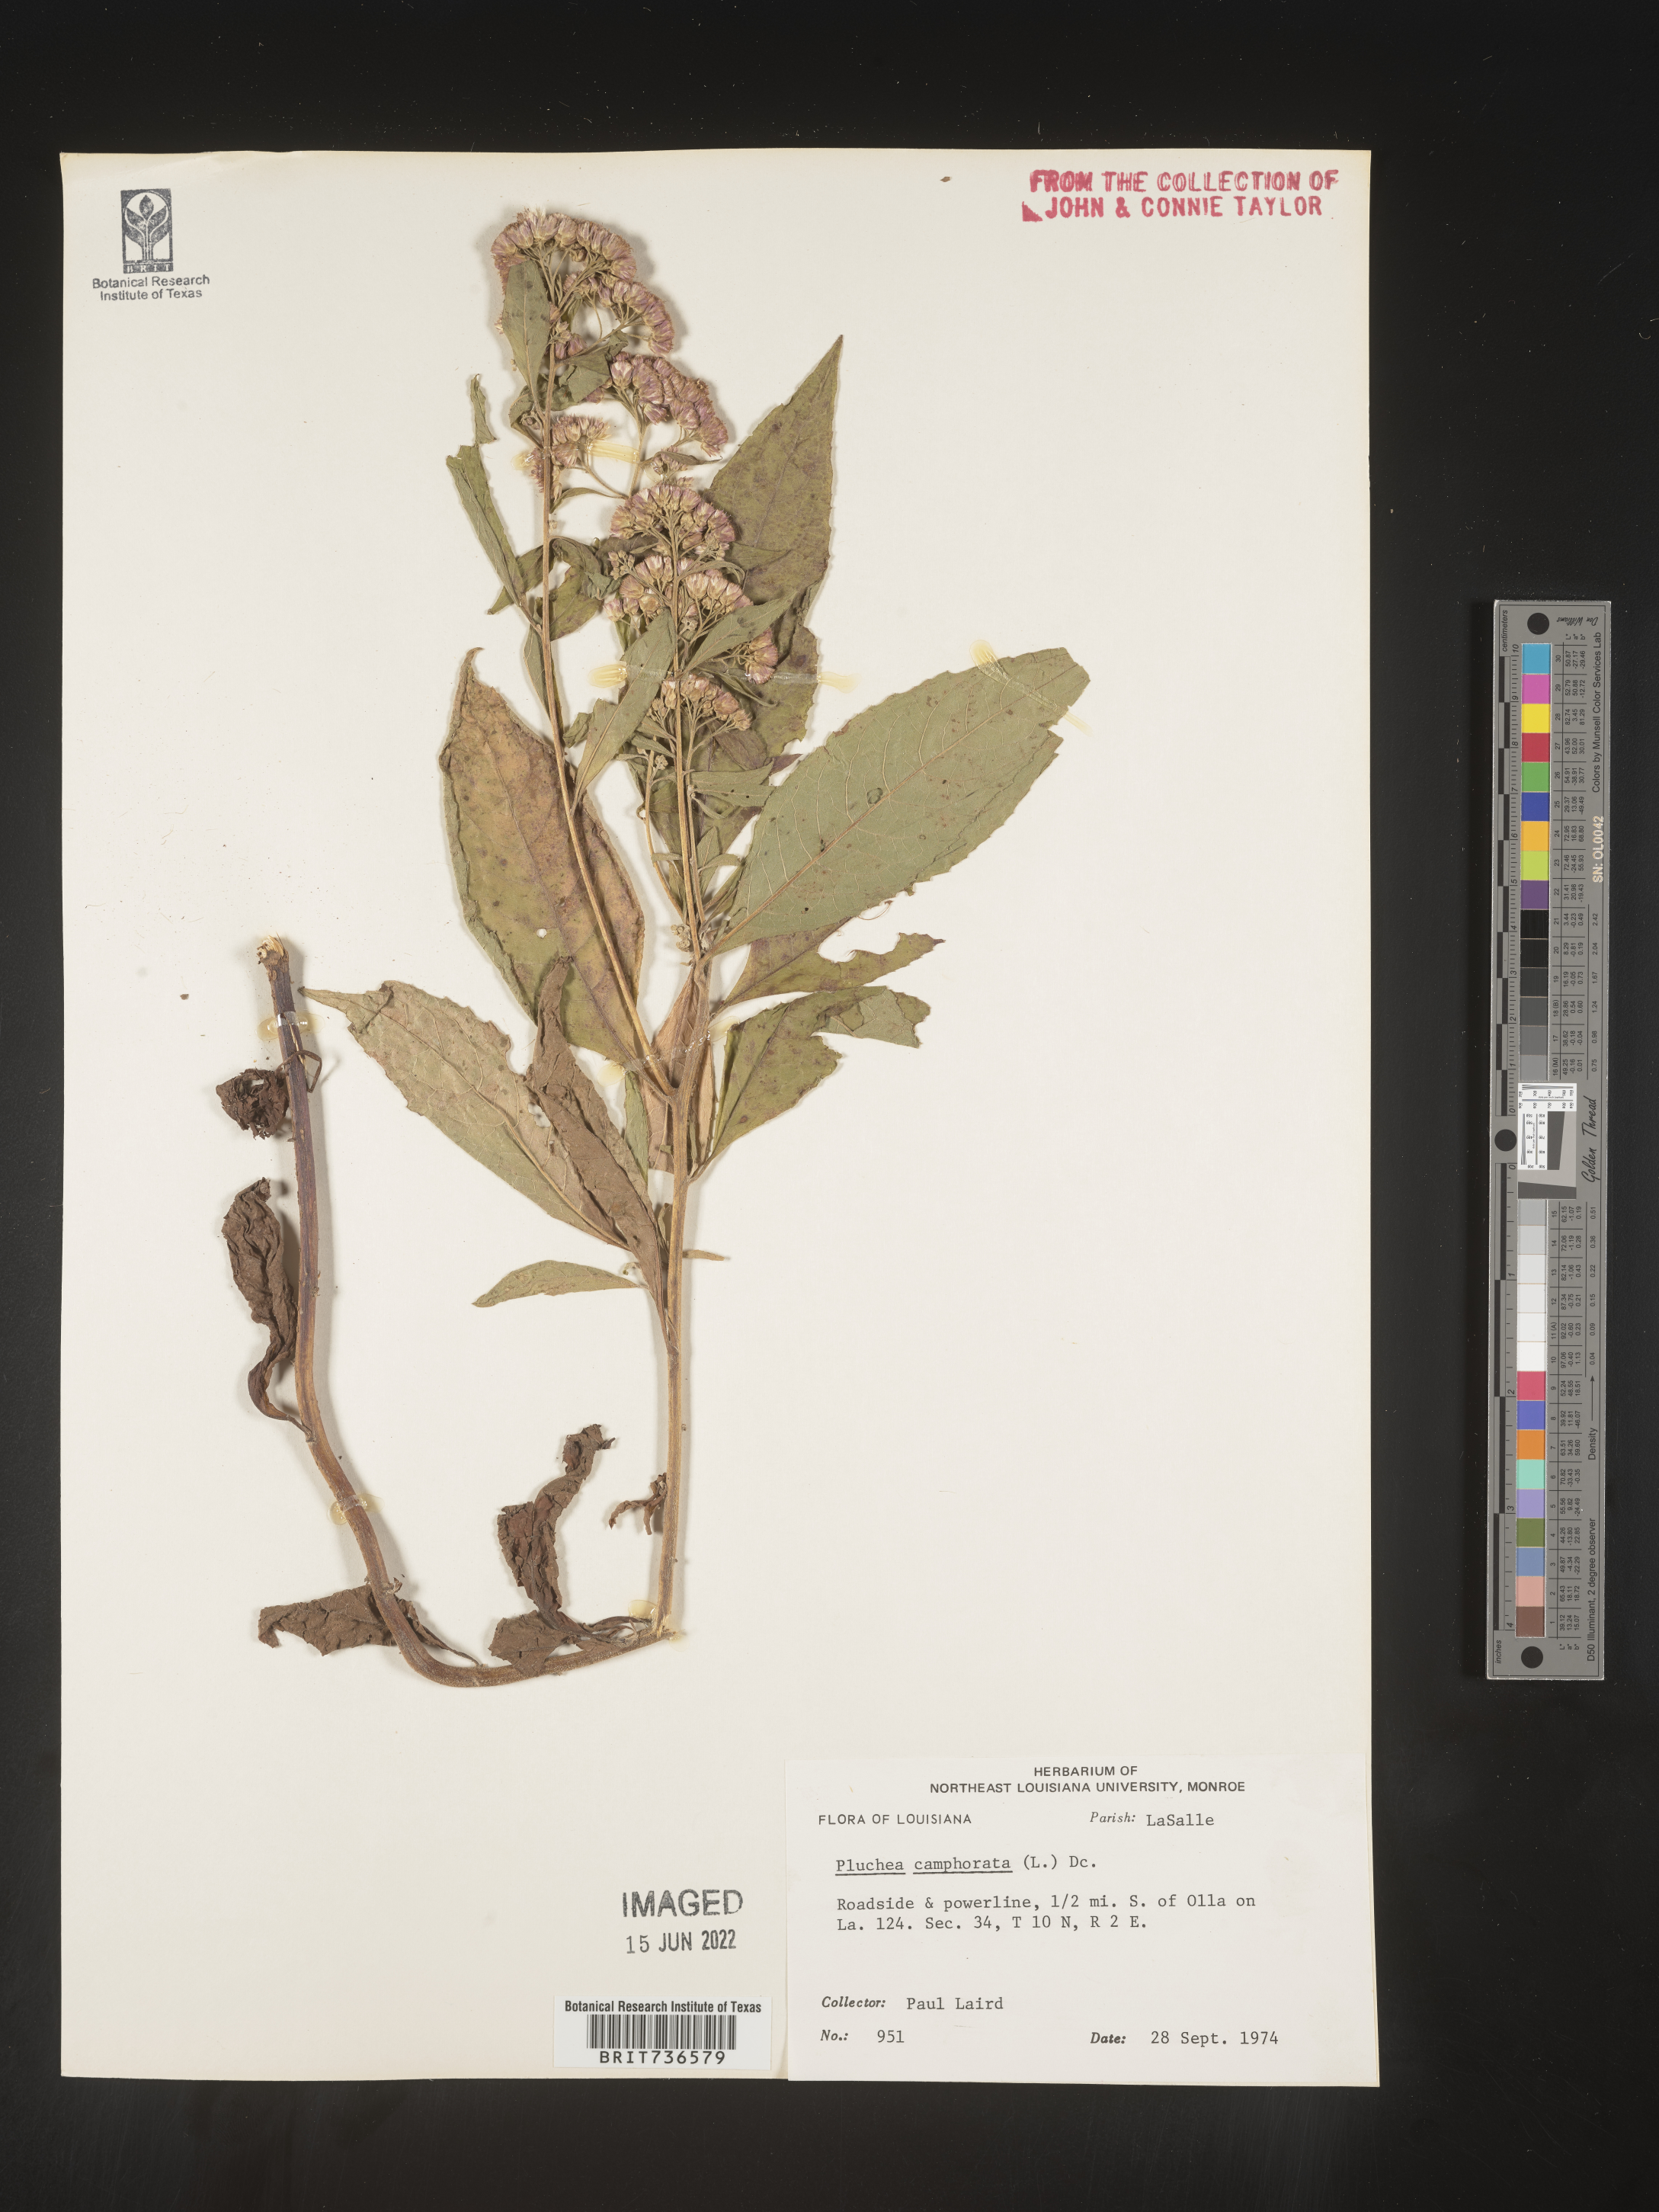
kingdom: Plantae
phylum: Tracheophyta
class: Magnoliopsida
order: Asterales
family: Asteraceae
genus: Pluchea
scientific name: Pluchea camphorata
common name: Camphor pluchea
